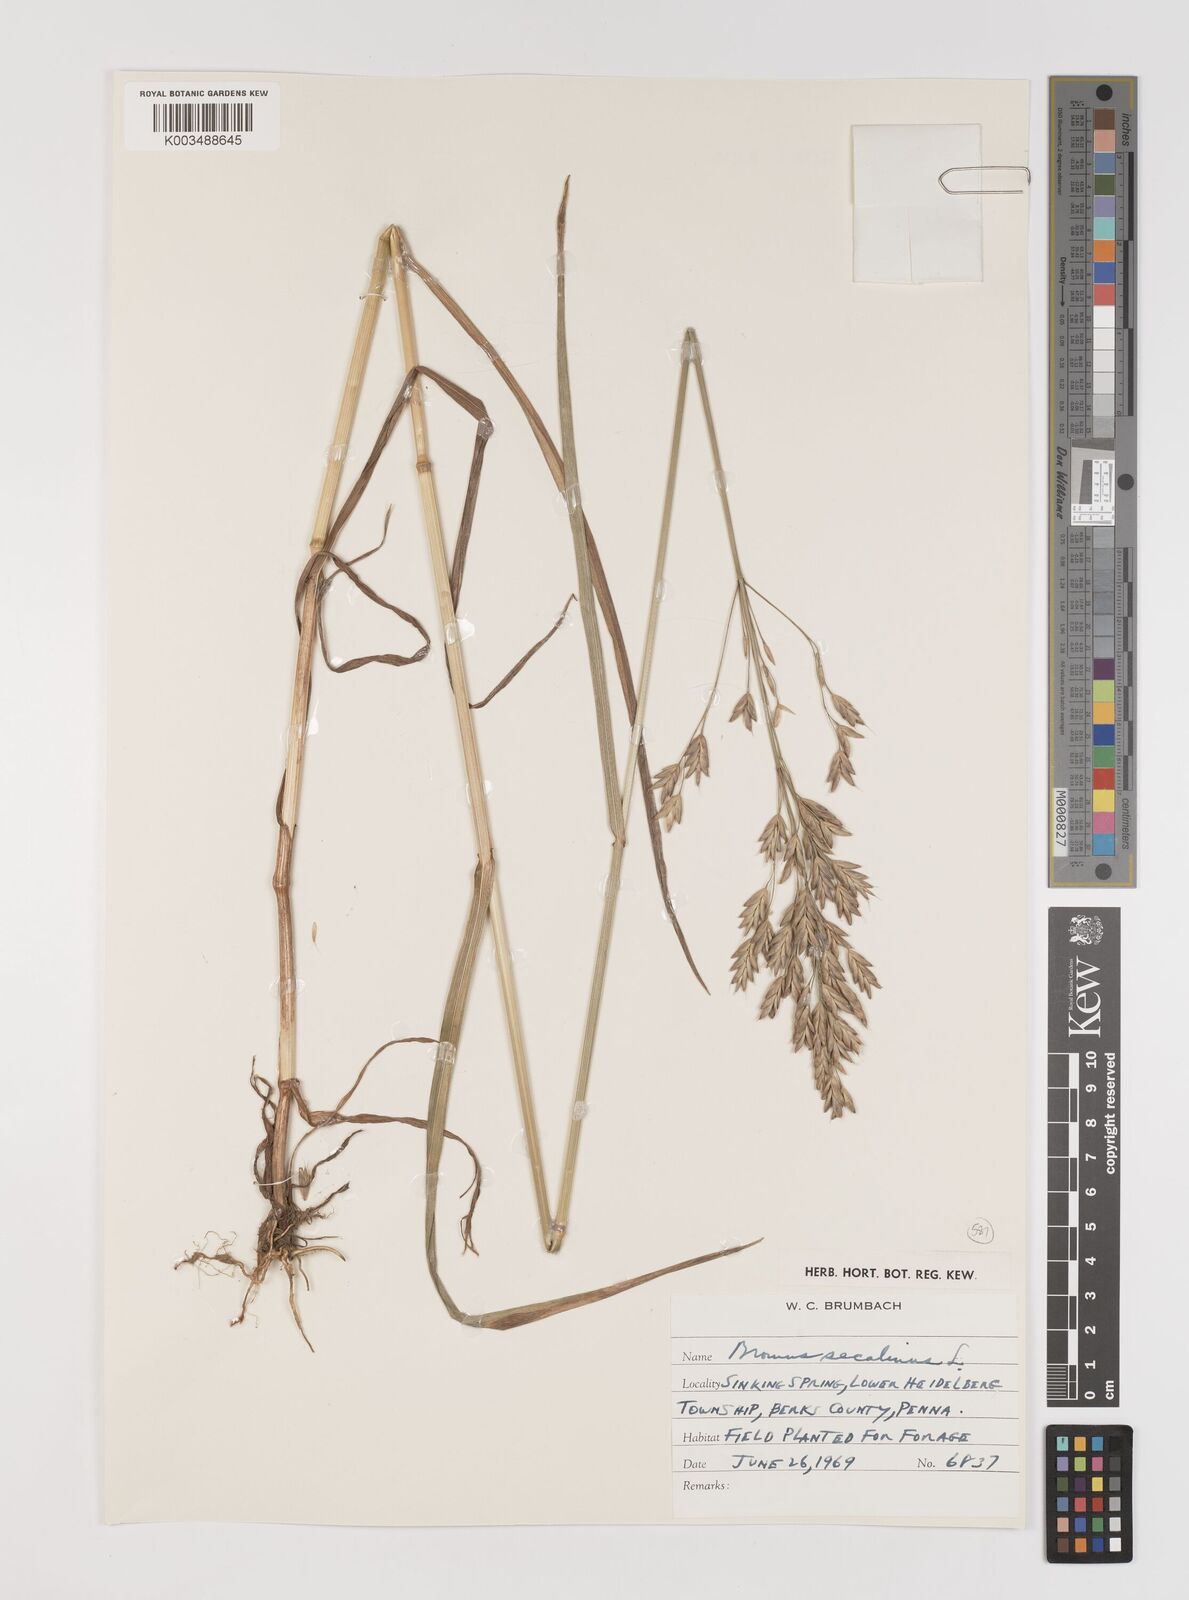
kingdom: Plantae
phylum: Tracheophyta
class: Liliopsida
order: Poales
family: Poaceae
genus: Bromus
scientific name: Bromus secalinus
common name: Rye brome
